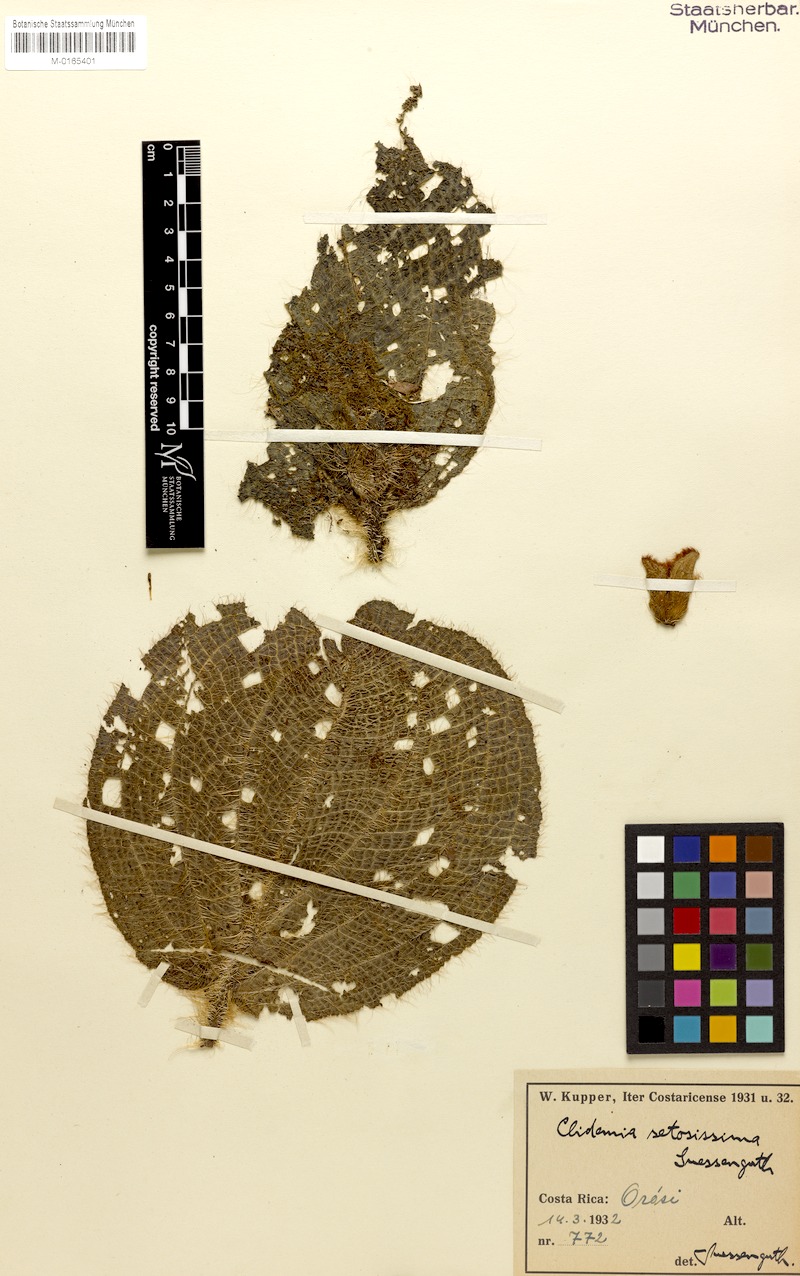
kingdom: Plantae
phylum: Tracheophyta
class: Magnoliopsida
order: Myrtales
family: Melastomataceae
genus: Miconia
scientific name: Miconia spectabilis
